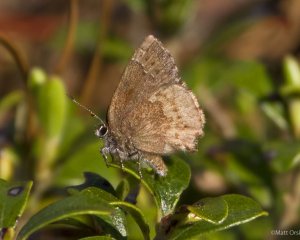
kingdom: Animalia
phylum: Arthropoda
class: Insecta
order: Lepidoptera
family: Lycaenidae
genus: Callophrys
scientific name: Callophrys polios
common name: Hoary Elfin
